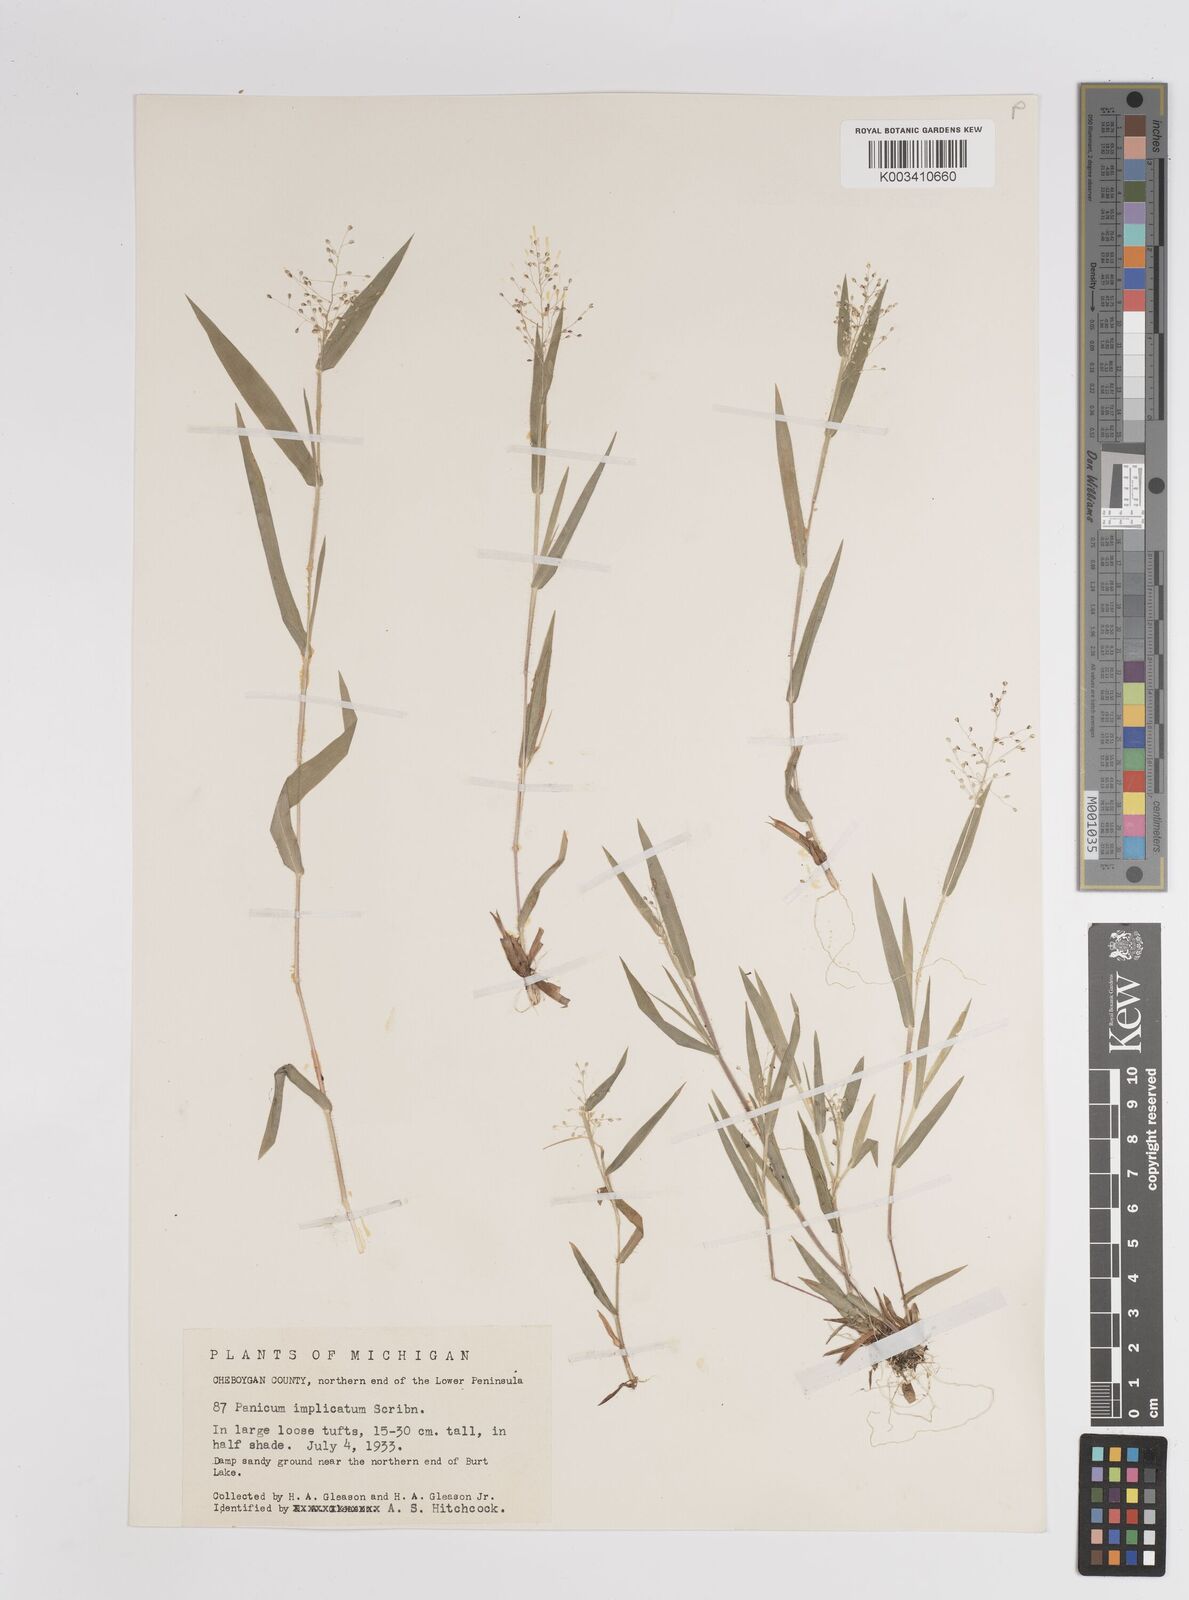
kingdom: Plantae
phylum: Tracheophyta
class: Liliopsida
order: Poales
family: Poaceae
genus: Dichanthelium
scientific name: Dichanthelium implicatum
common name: Slender-stemmed panicgrass
